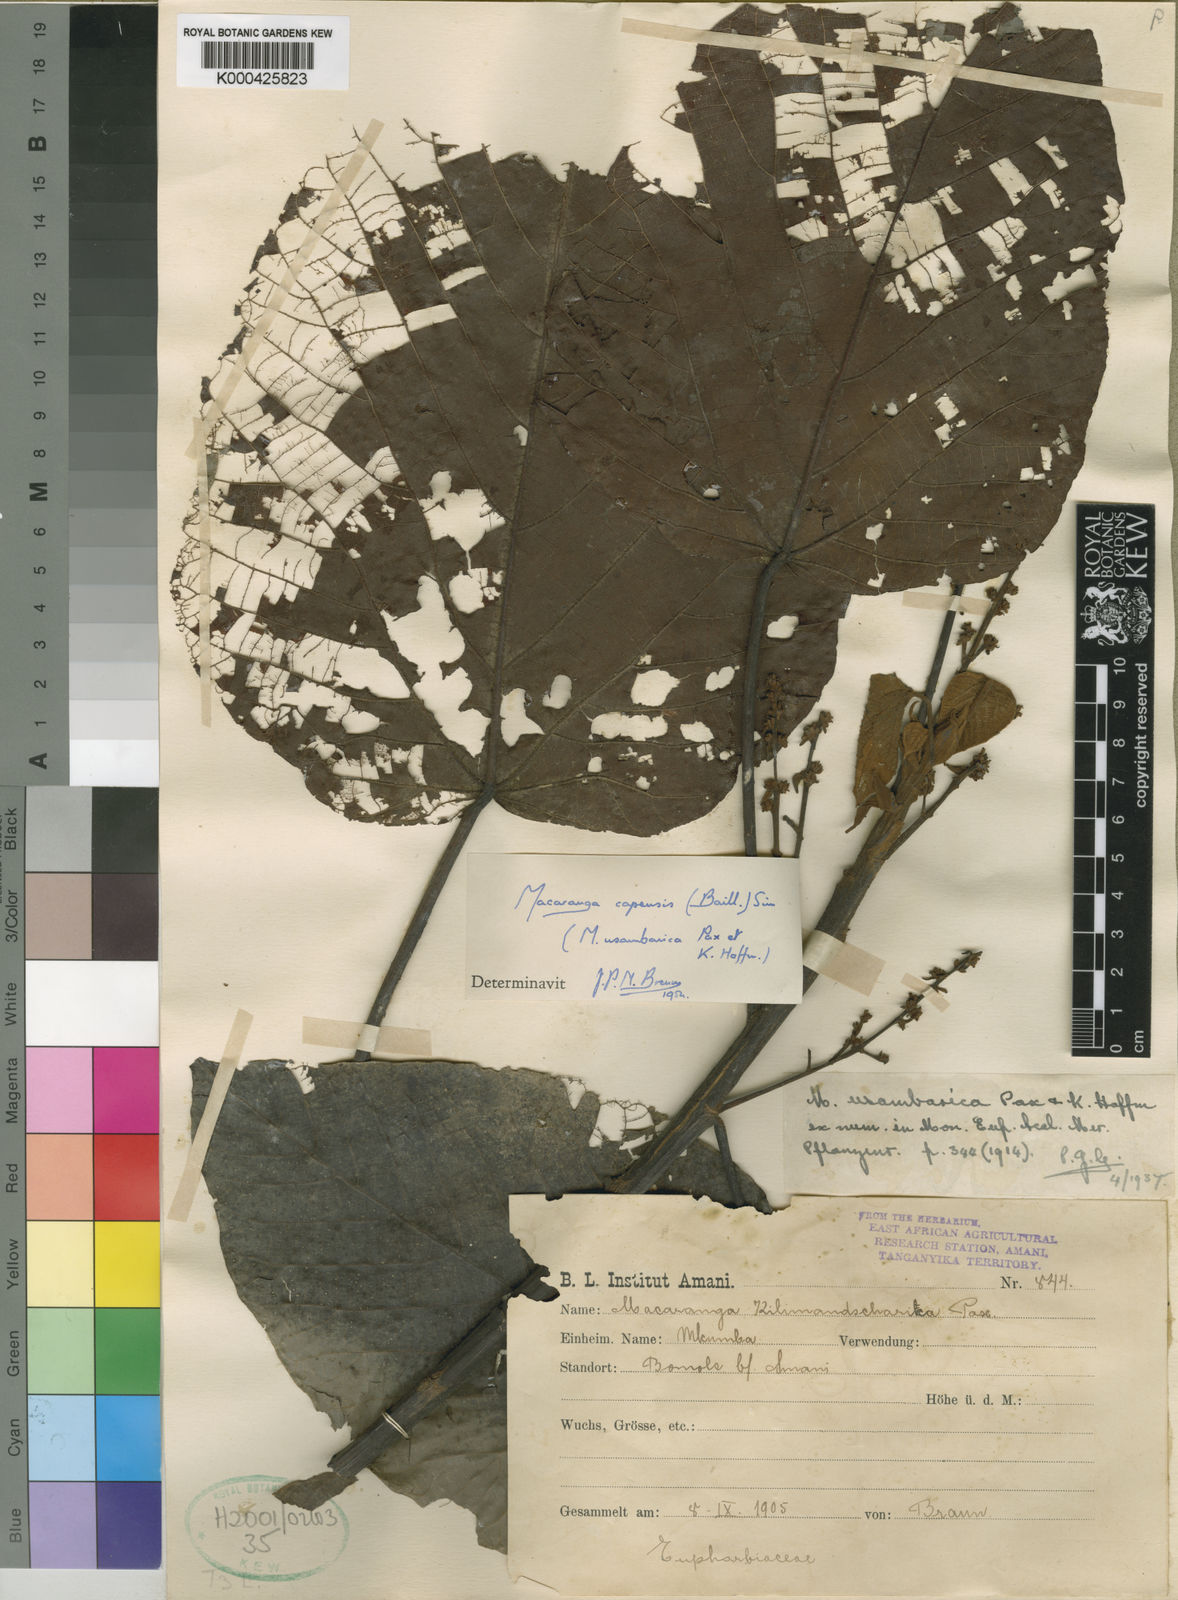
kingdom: Plantae
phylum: Tracheophyta
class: Magnoliopsida
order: Malpighiales
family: Euphorbiaceae
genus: Macaranga
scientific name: Macaranga capensis
